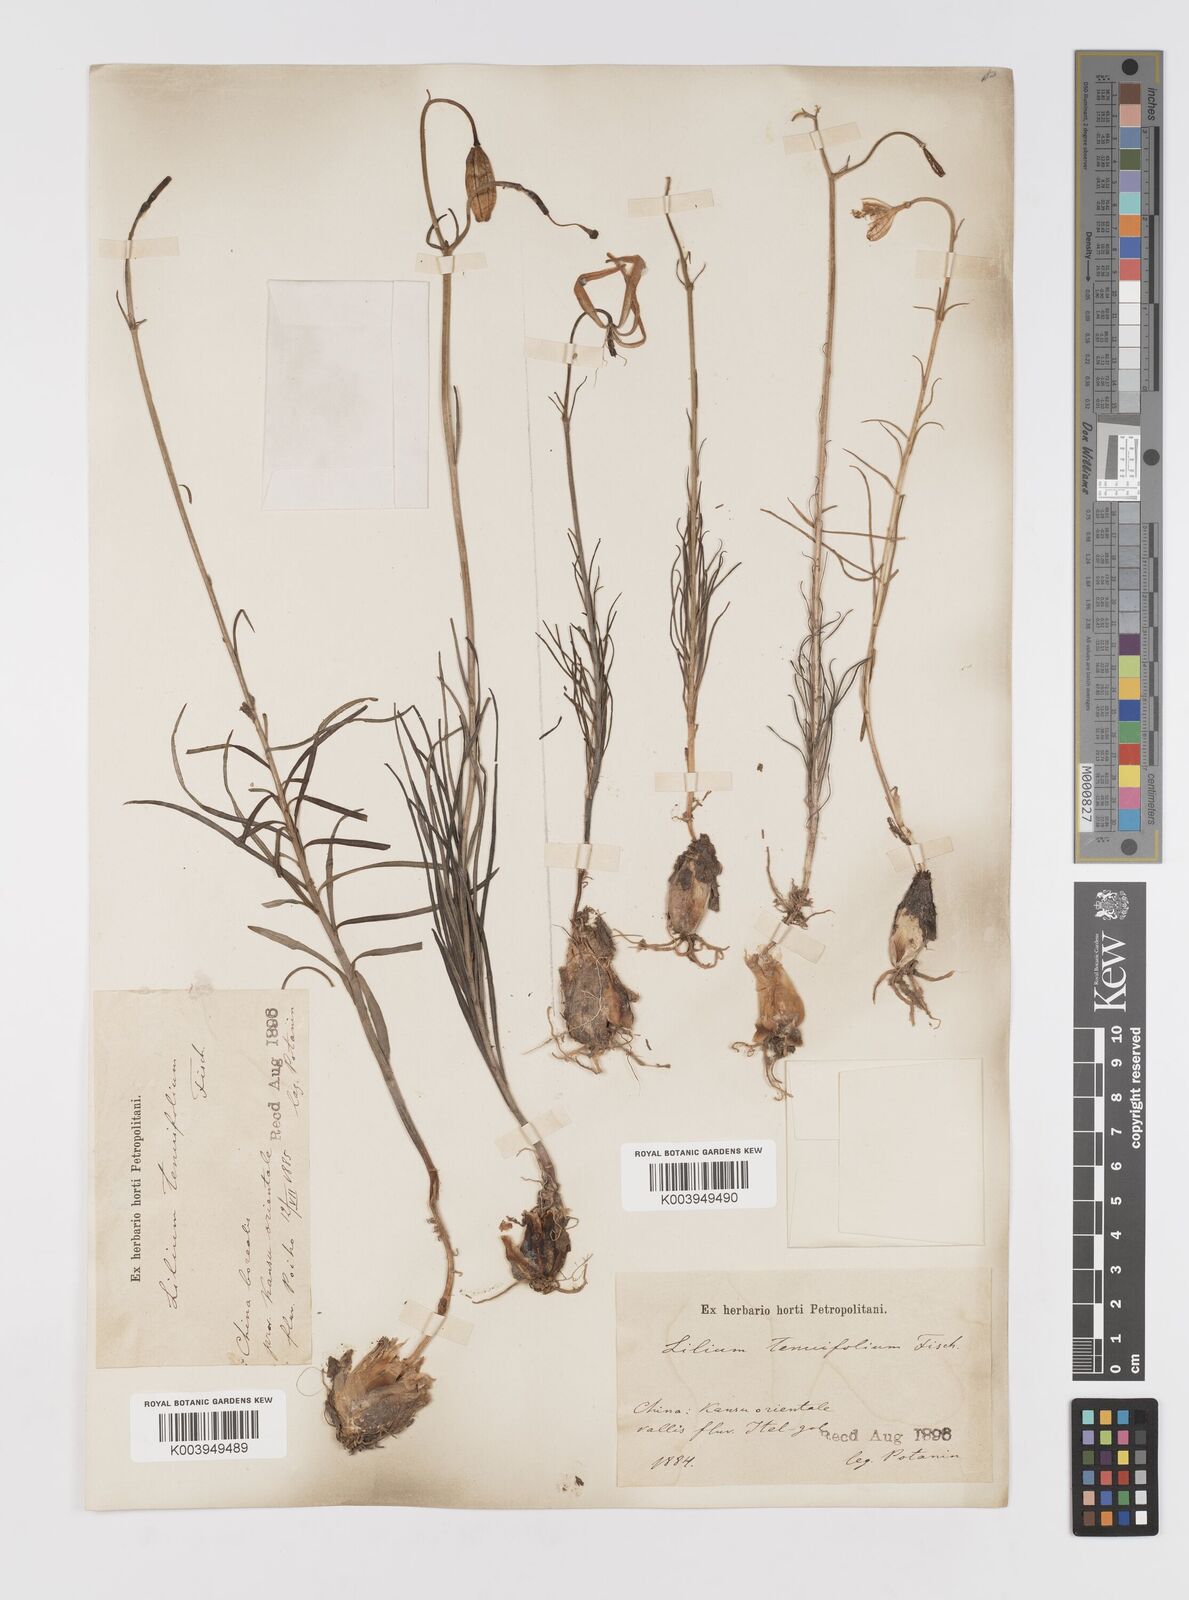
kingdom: Plantae
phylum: Tracheophyta
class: Liliopsida
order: Liliales
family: Liliaceae
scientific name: Liliaceae
